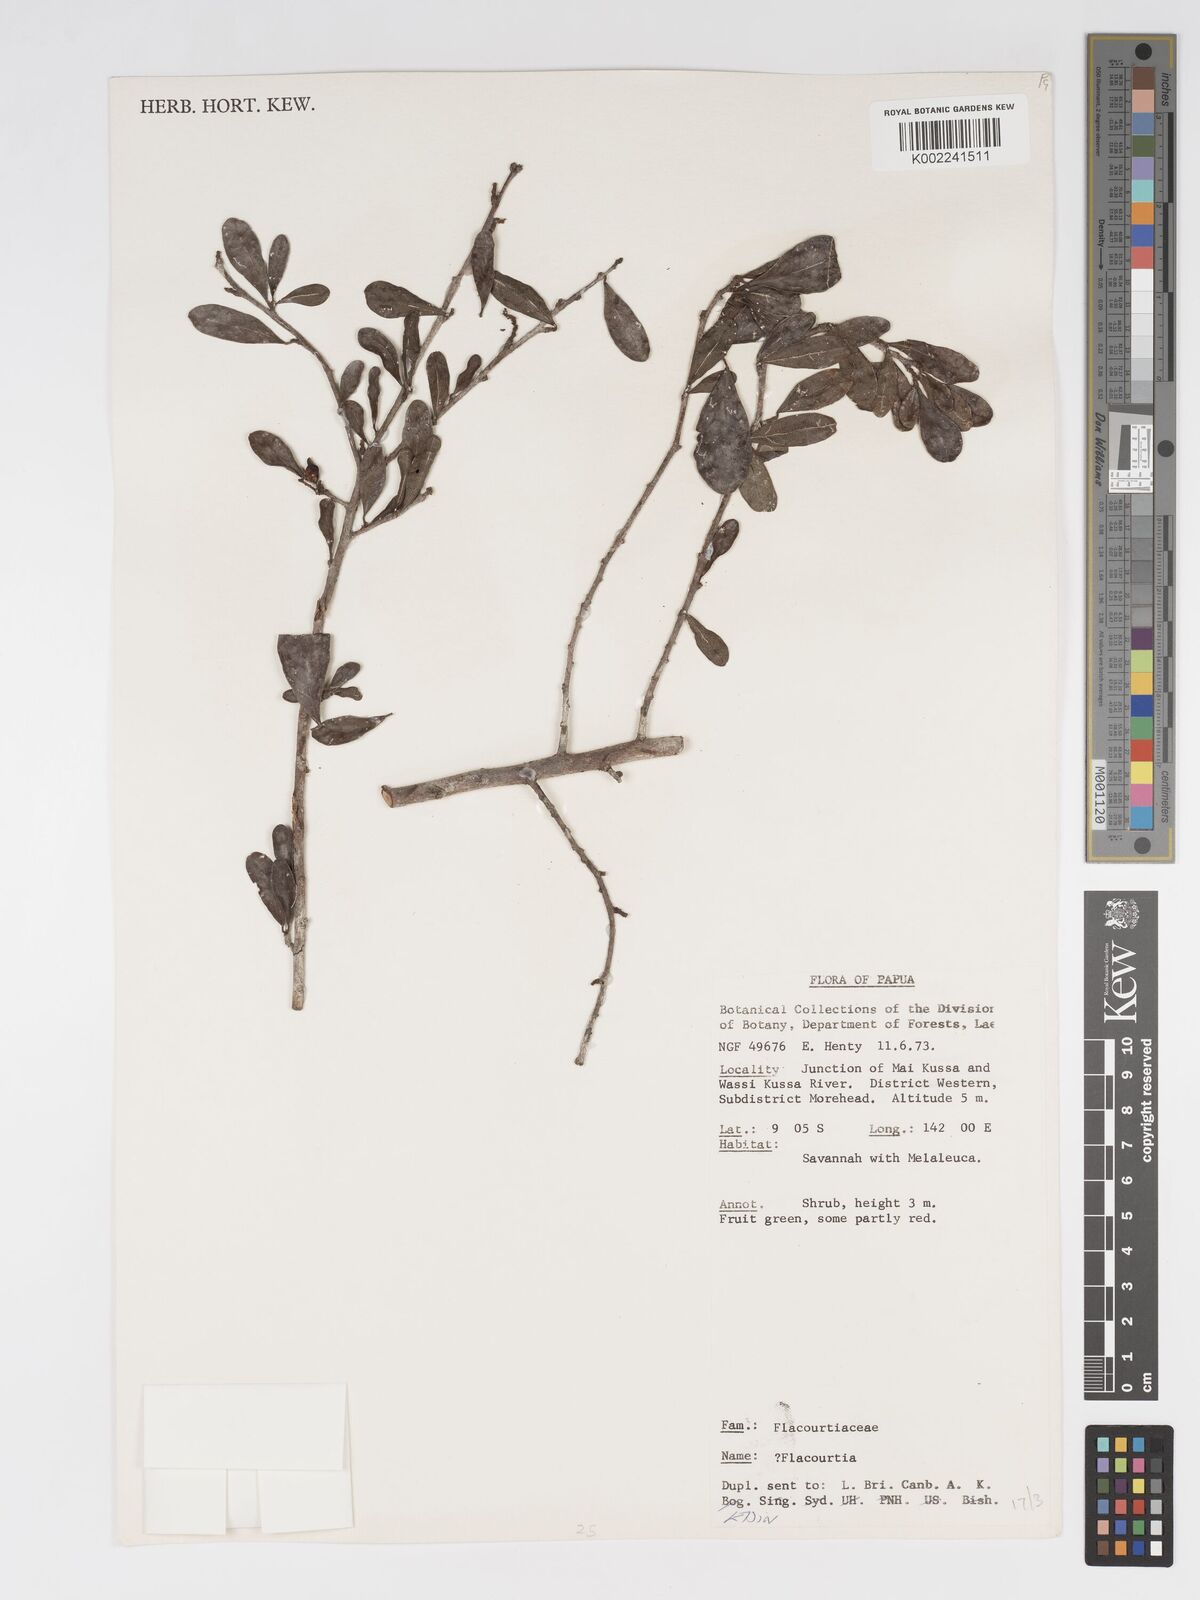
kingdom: Plantae
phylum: Tracheophyta
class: Magnoliopsida
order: Malpighiales
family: Salicaceae
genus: Flacourtia
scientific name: Flacourtia
